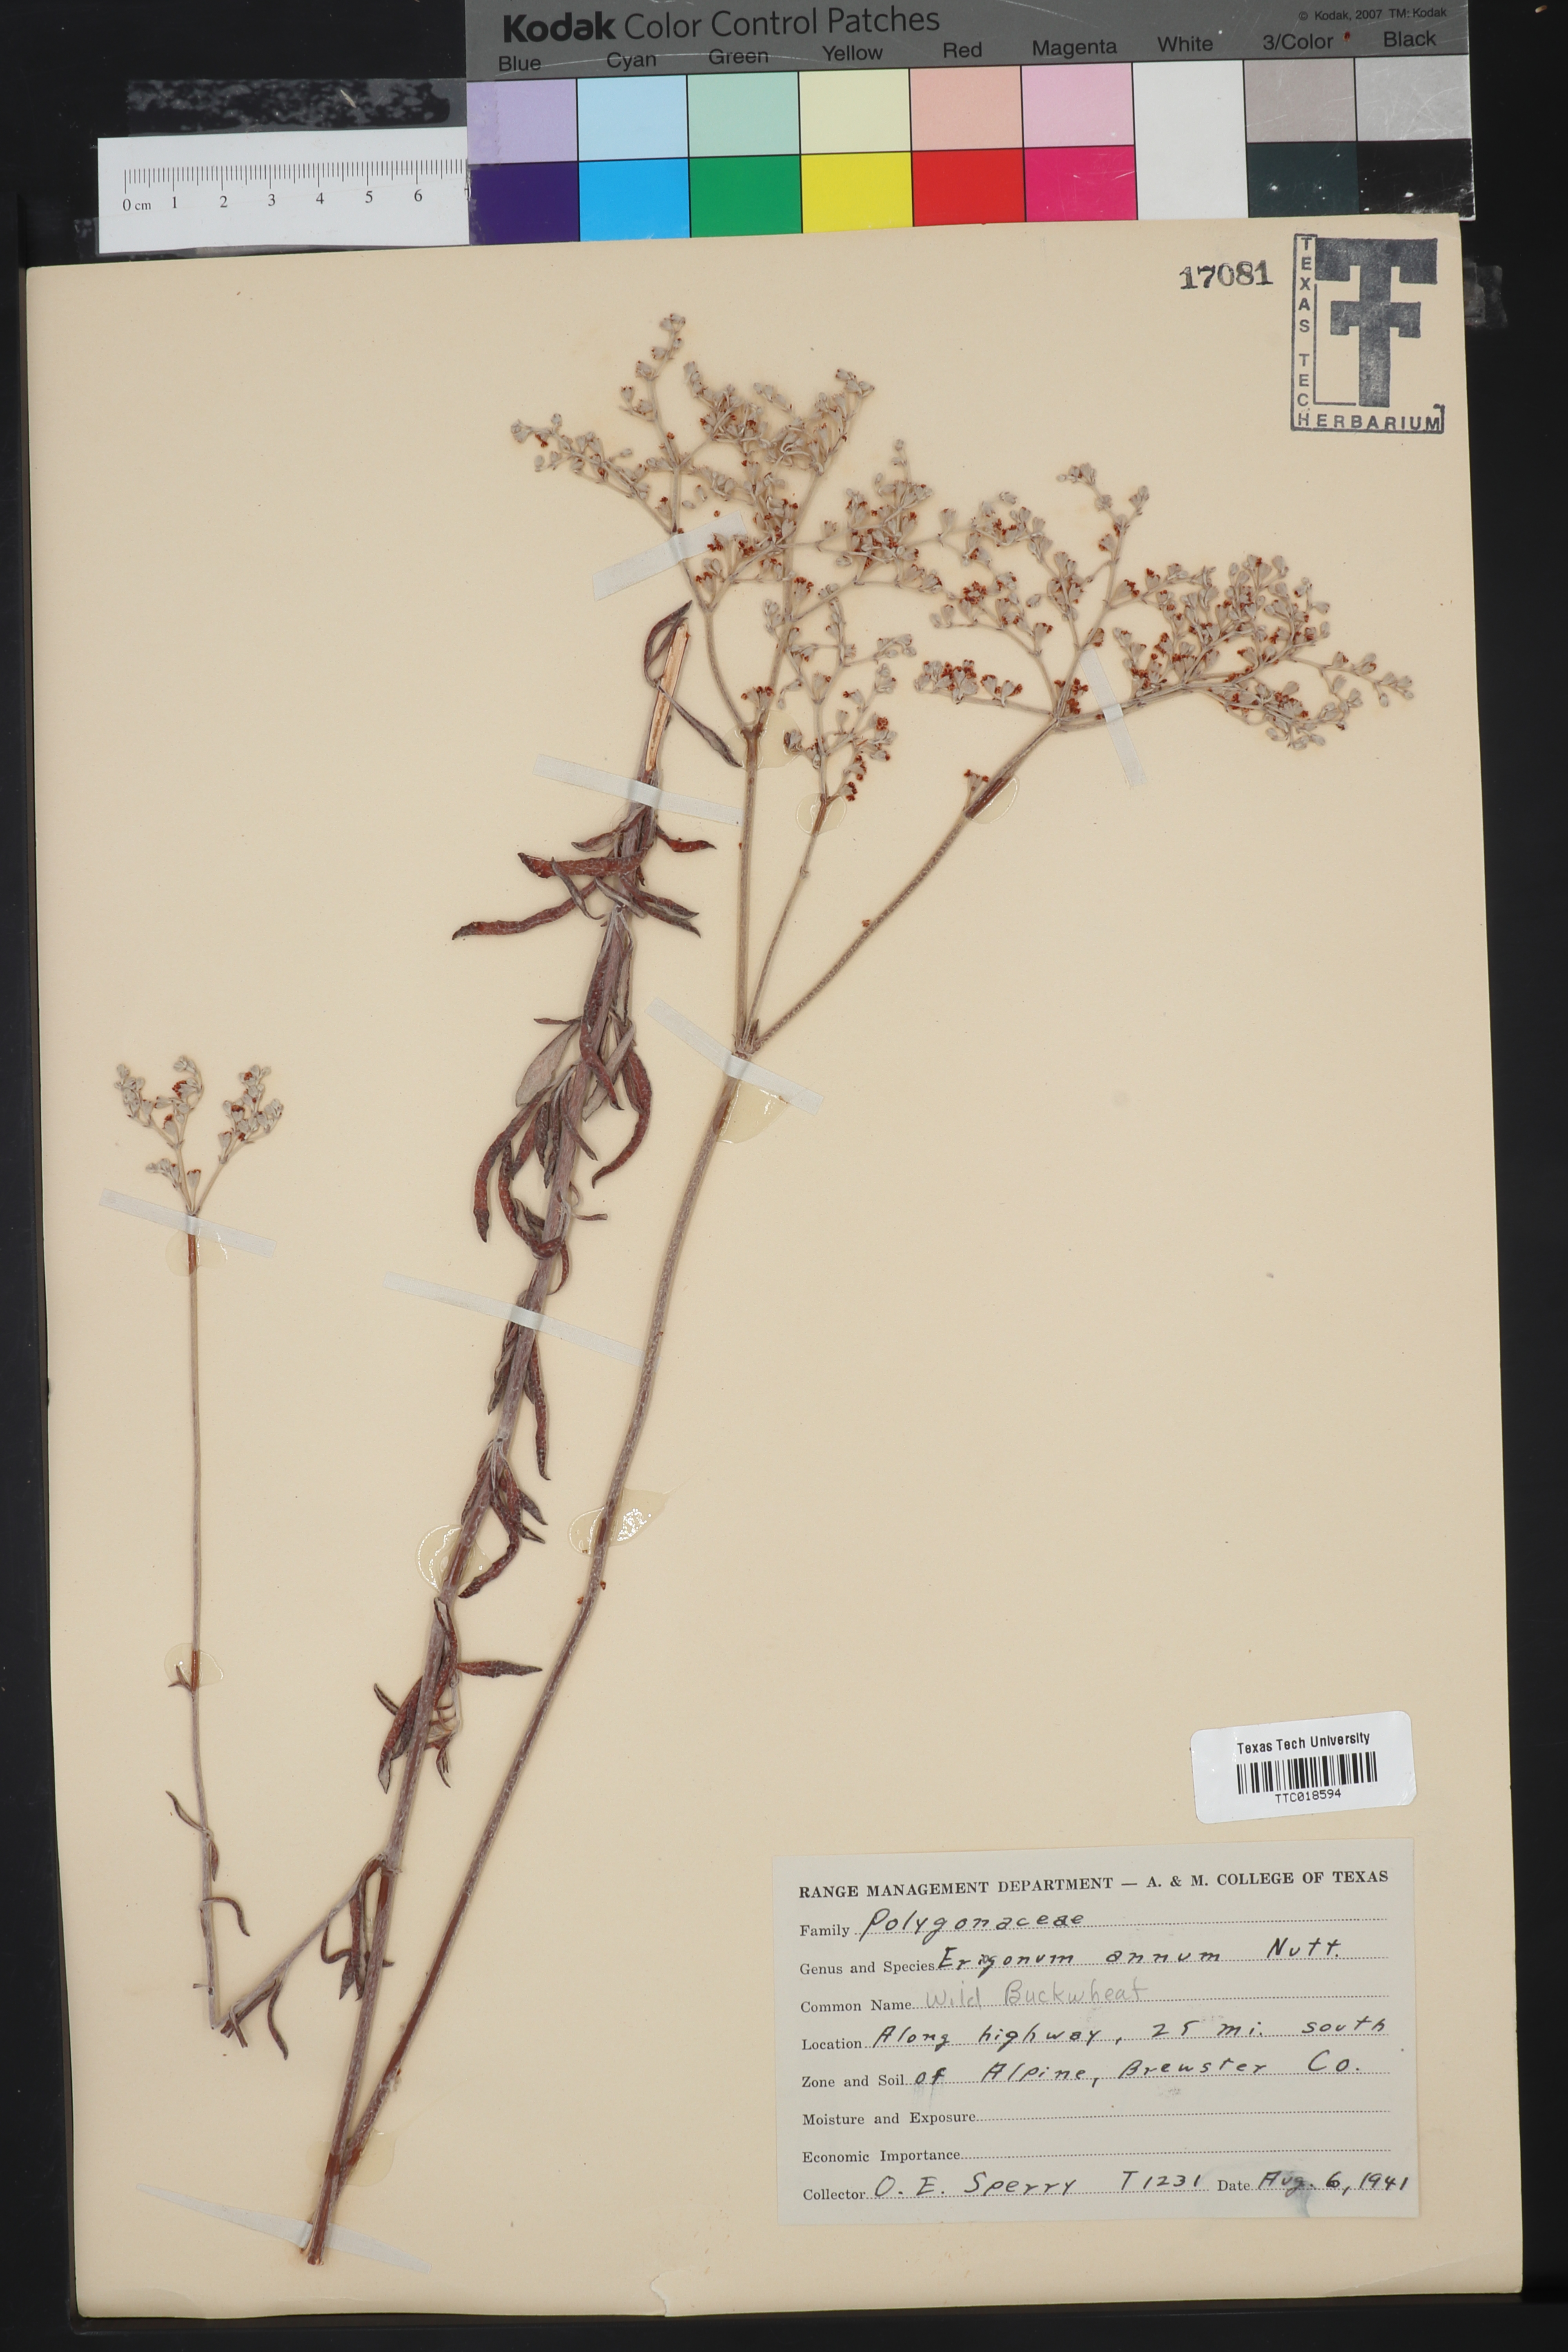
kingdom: Plantae
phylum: Tracheophyta
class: Magnoliopsida
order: Caryophyllales
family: Polygonaceae
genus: Eriogonum
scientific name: Eriogonum annuum
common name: Annual wild buckwheat
